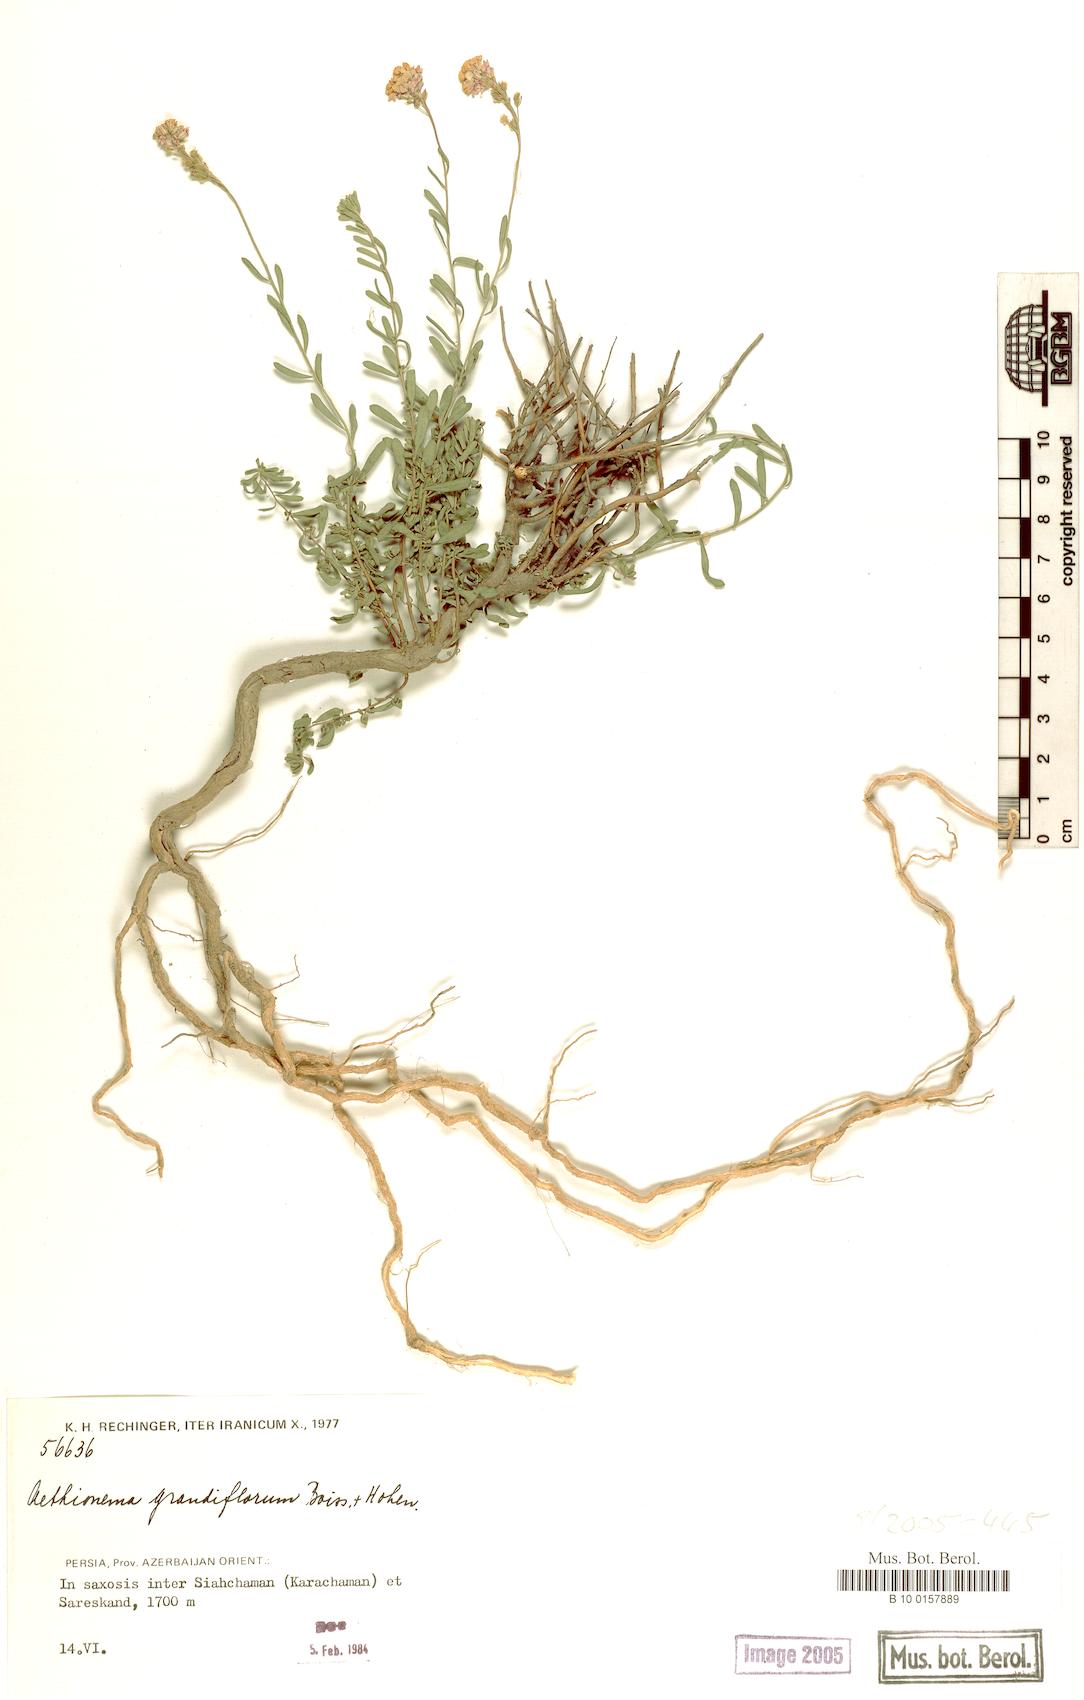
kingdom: Plantae
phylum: Tracheophyta
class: Magnoliopsida
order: Brassicales
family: Brassicaceae
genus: Aethionema
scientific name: Aethionema grandiflorum
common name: Persian stonecress
